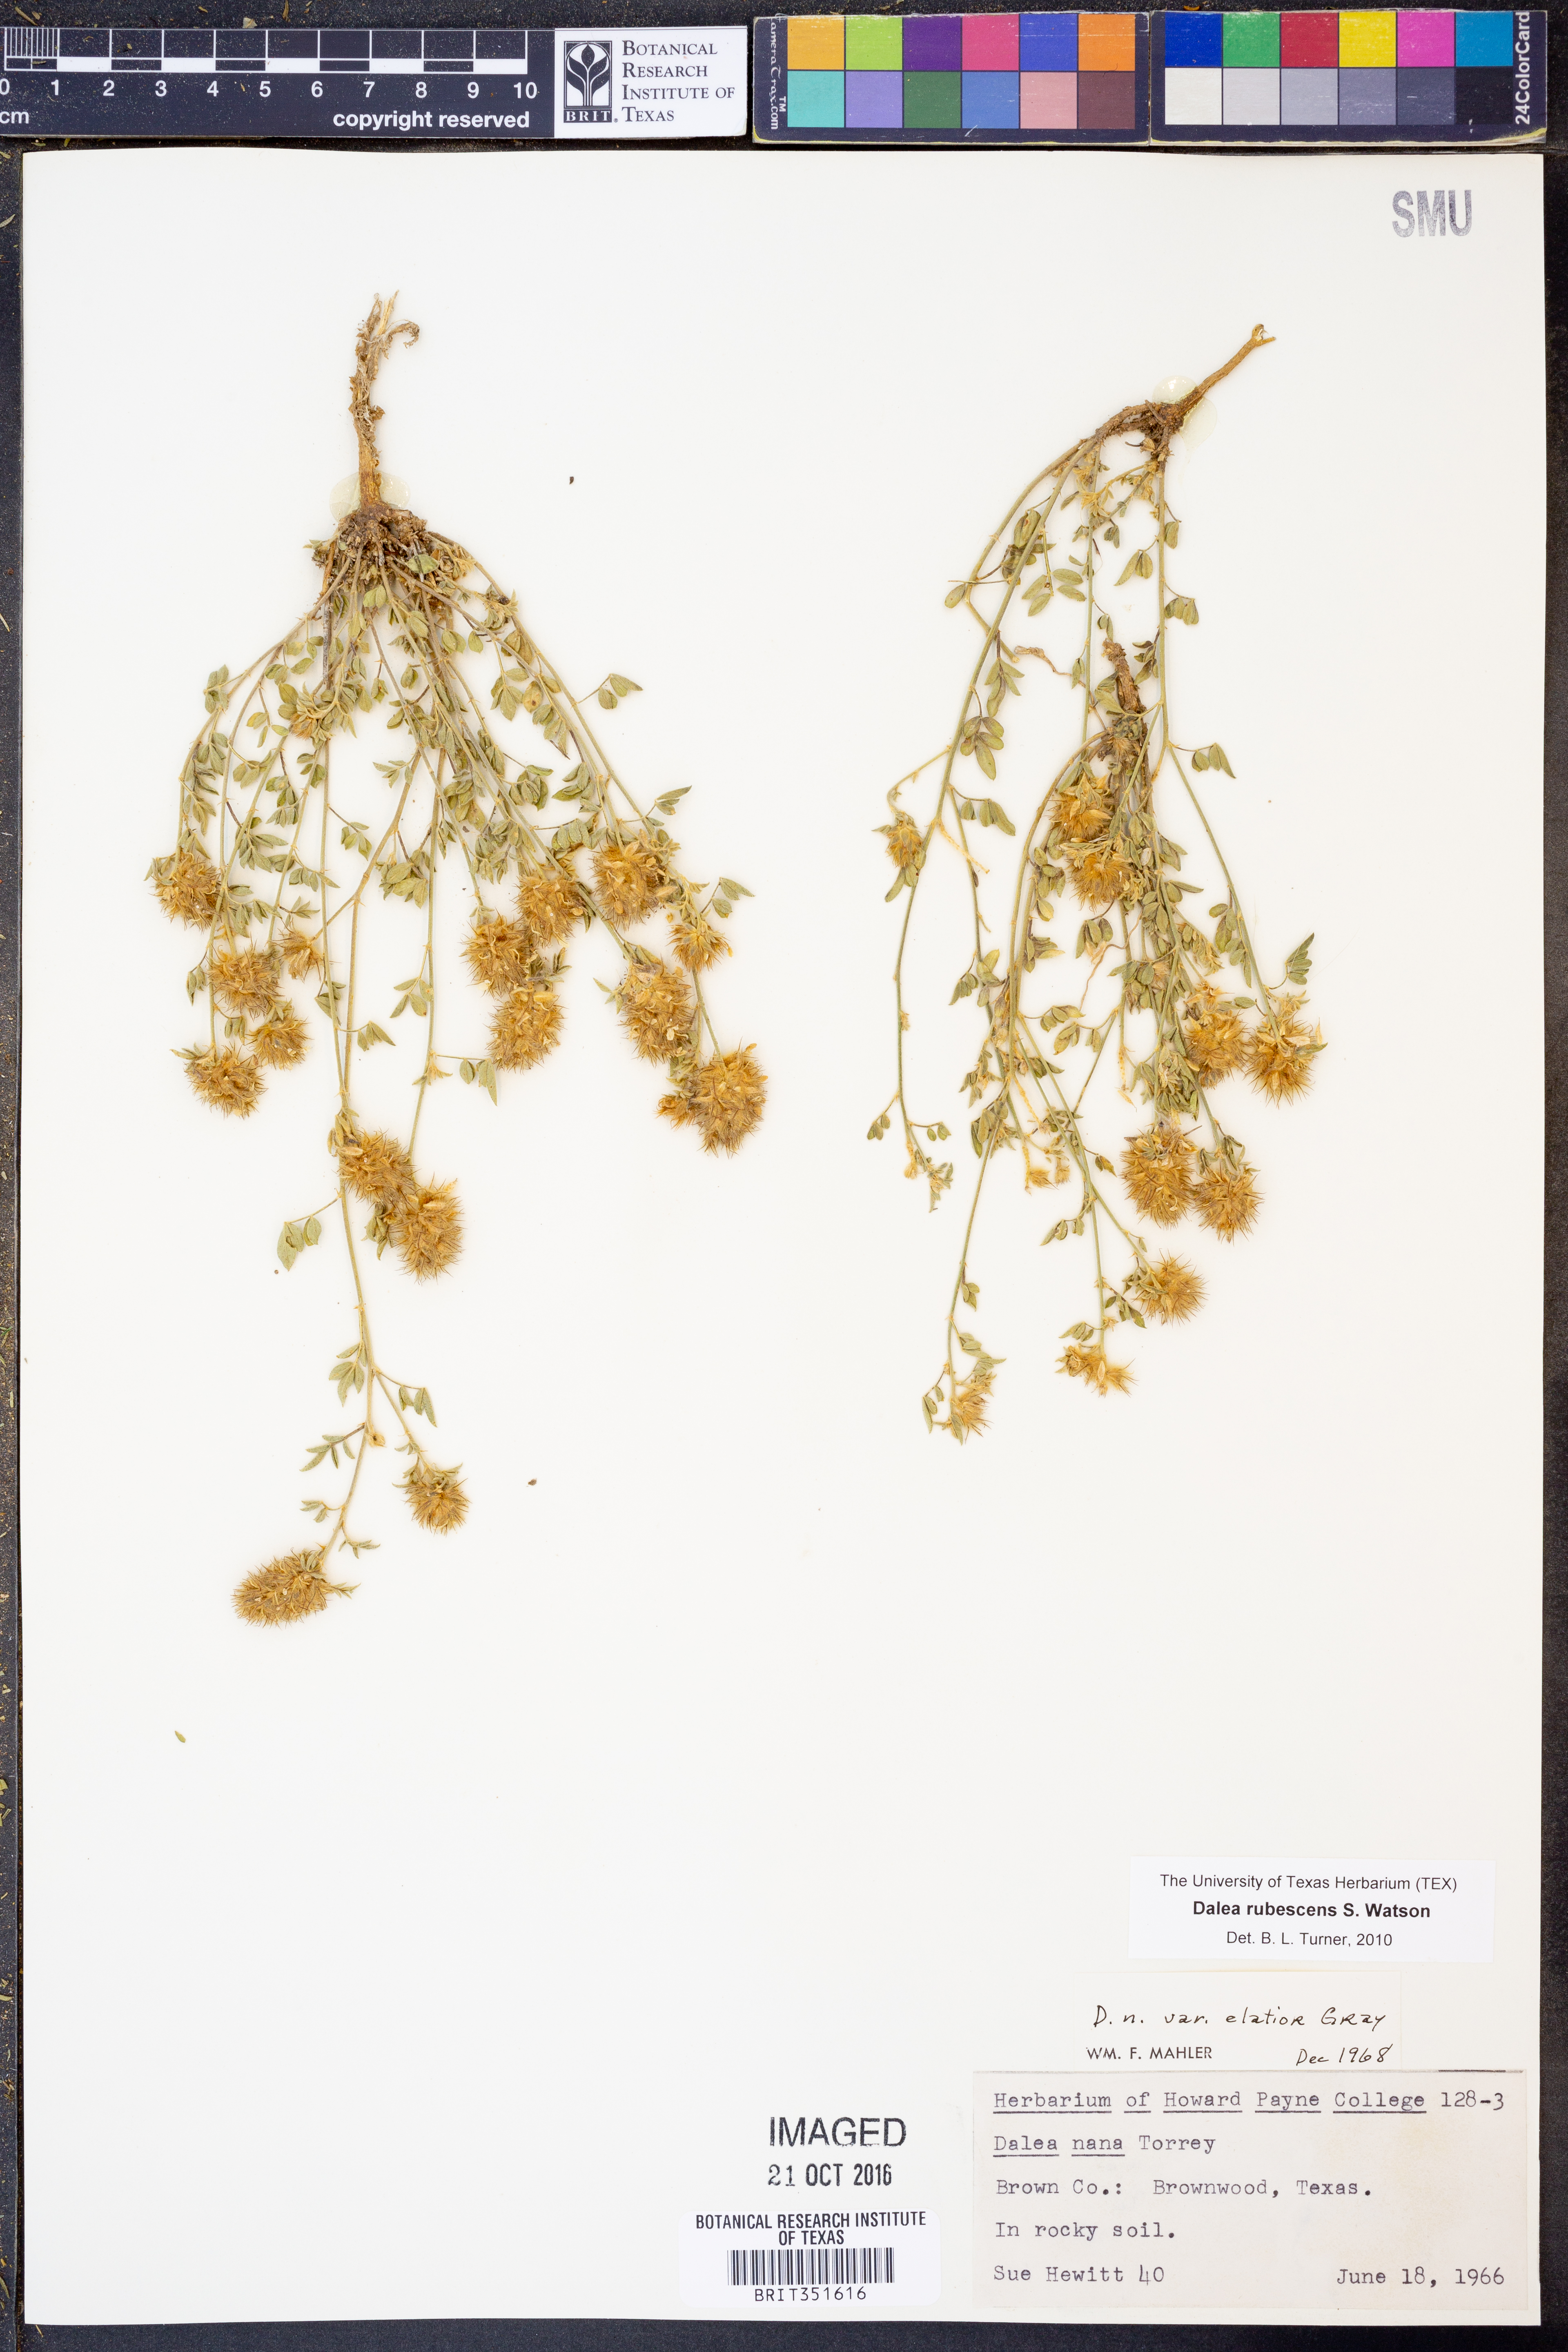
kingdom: Plantae
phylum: Tracheophyta
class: Magnoliopsida
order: Fabales
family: Fabaceae
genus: Dalea
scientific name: Dalea rubescens
